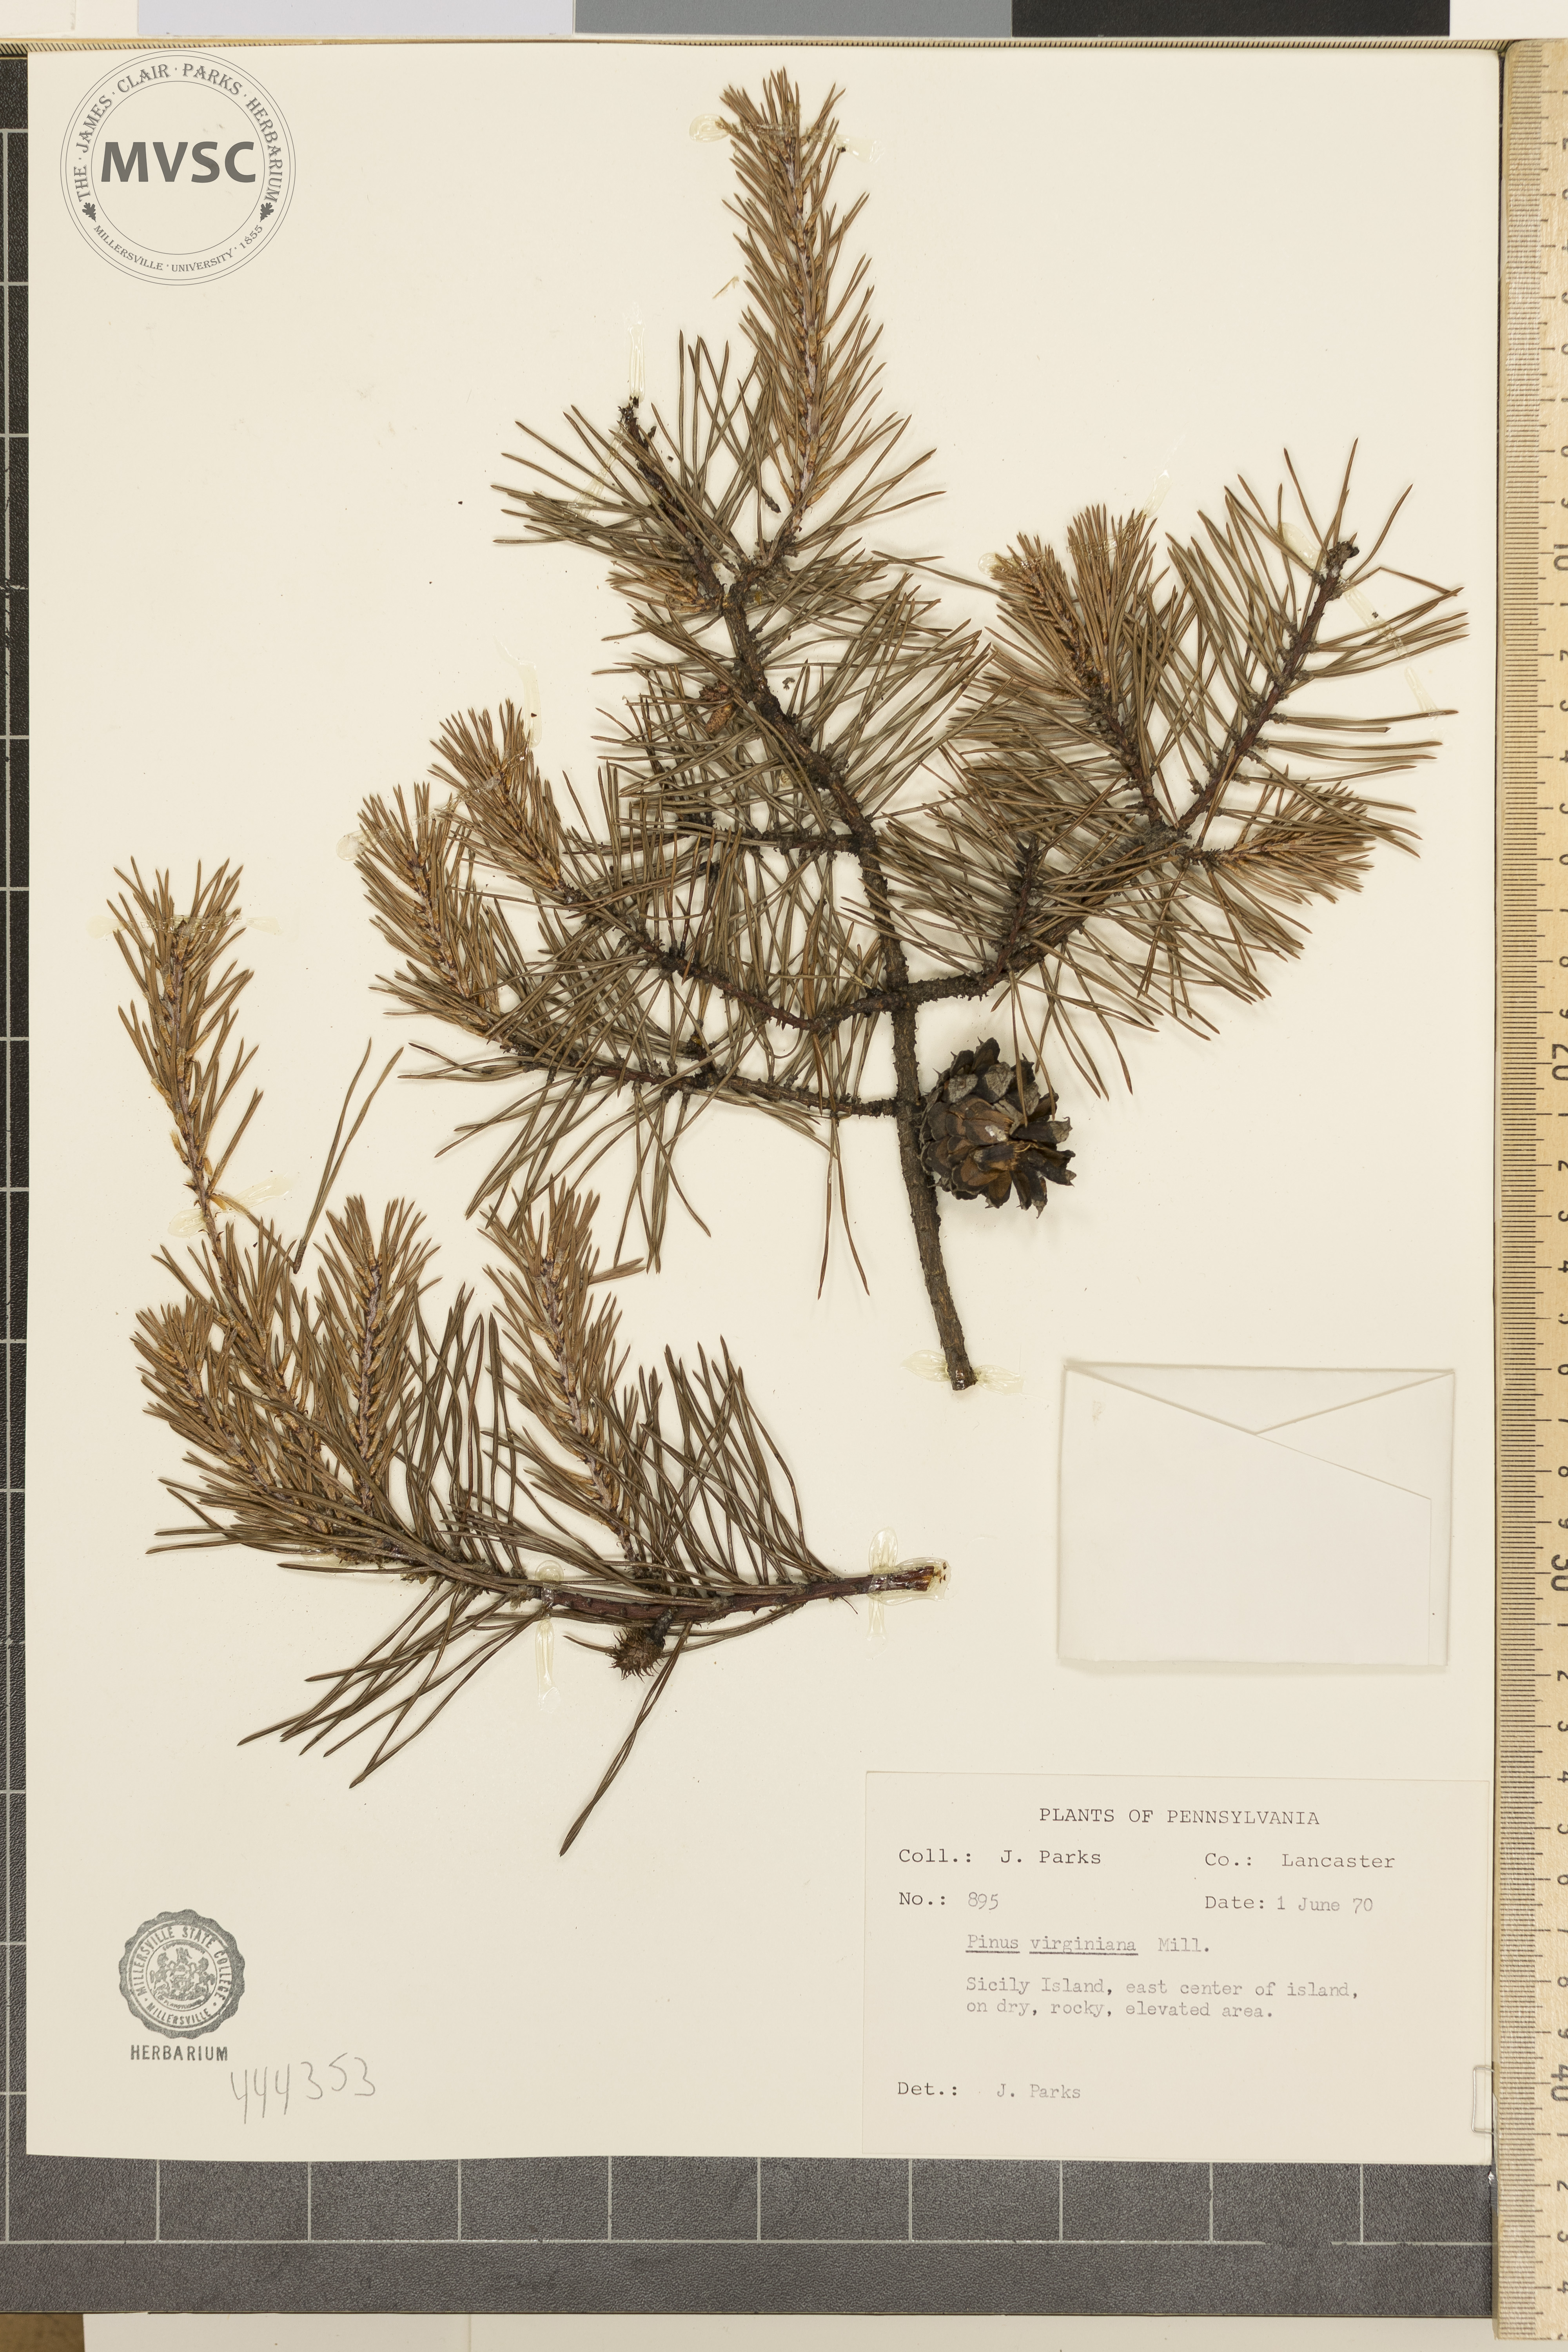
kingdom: Plantae
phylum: Tracheophyta
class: Pinopsida
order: Pinales
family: Pinaceae
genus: Pinus
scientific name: Pinus virginiana
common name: Scrub pine
